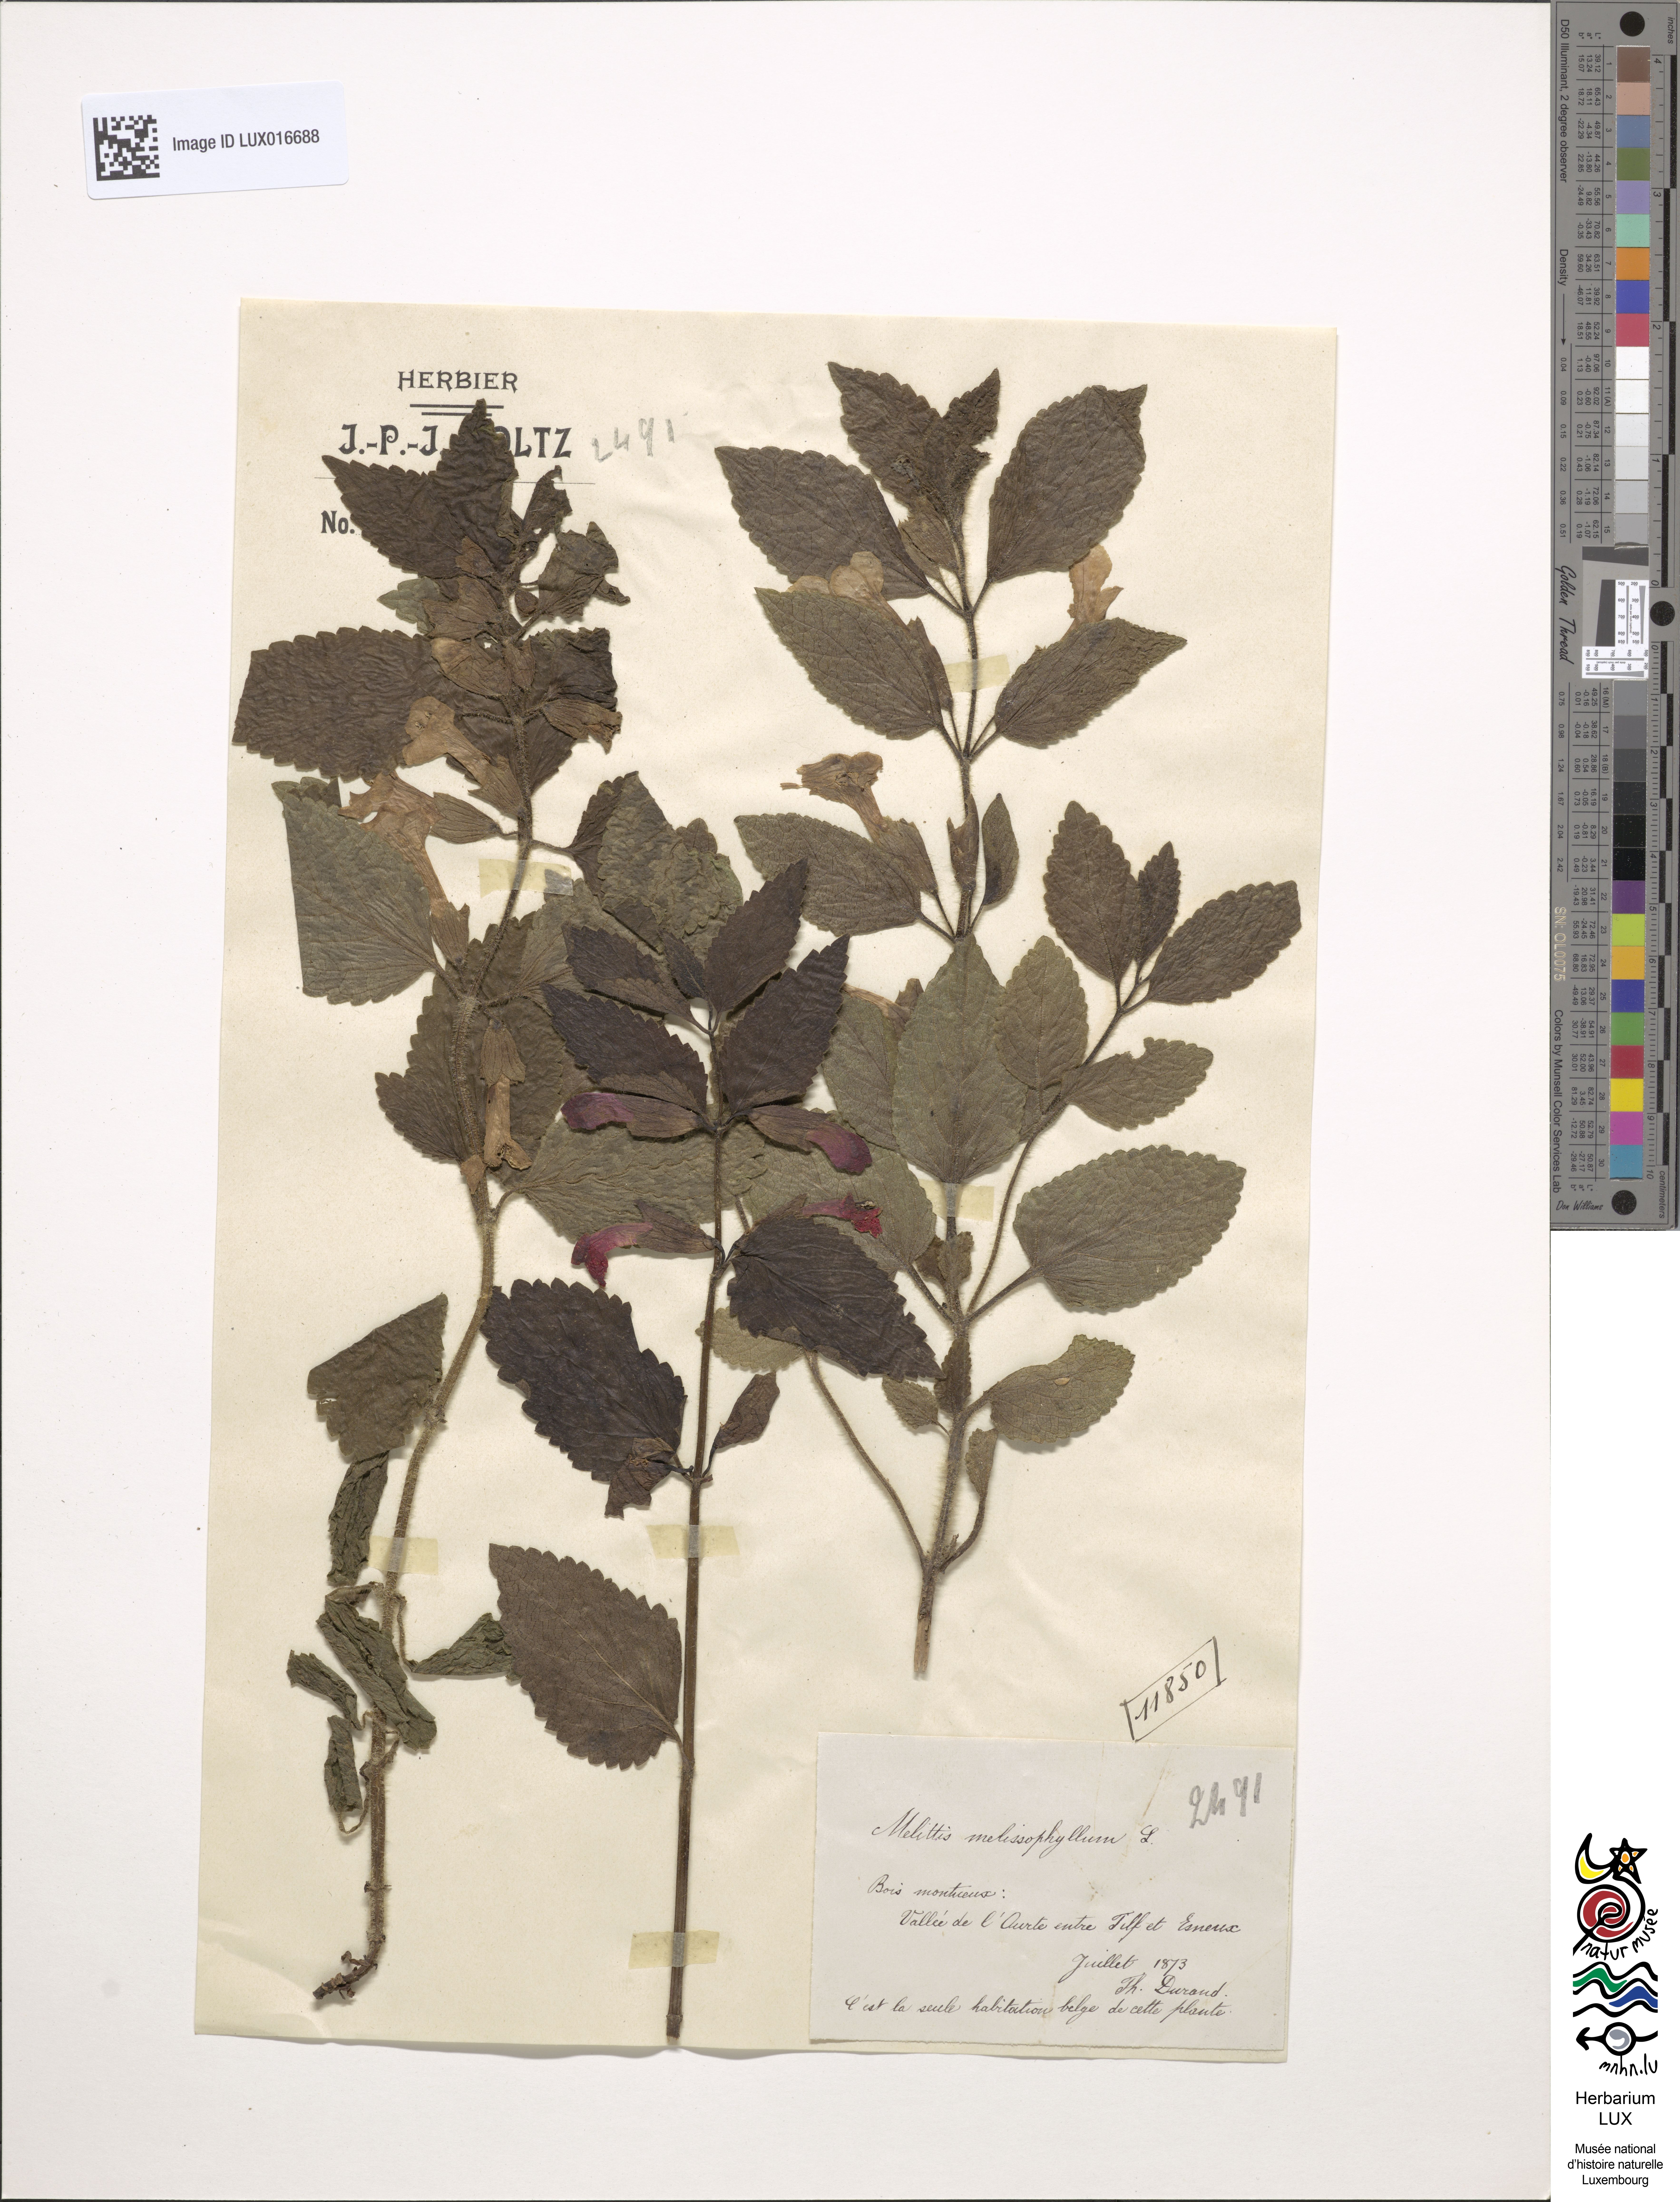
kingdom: Plantae
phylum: Tracheophyta
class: Magnoliopsida
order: Lamiales
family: Lamiaceae
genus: Melittis
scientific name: Melittis melissophyllum
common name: Bastard balm
